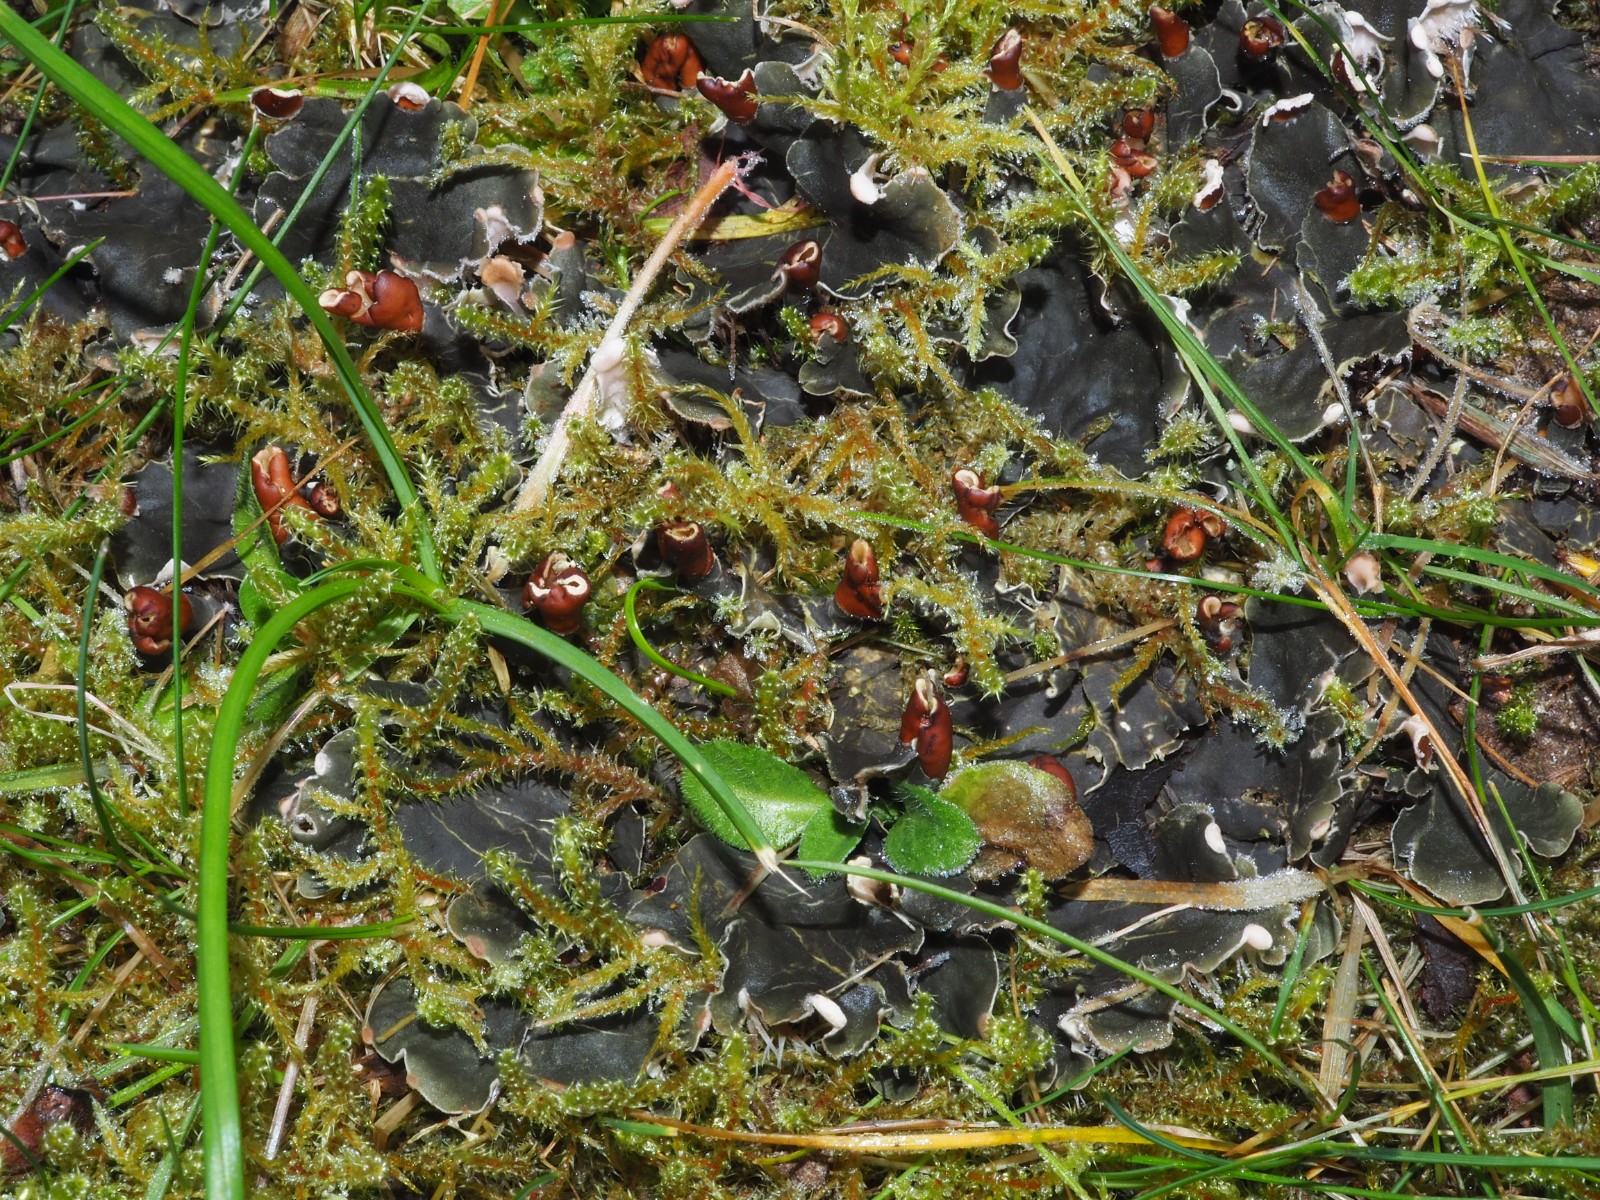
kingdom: Fungi
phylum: Ascomycota
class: Lecanoromycetes
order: Peltigerales
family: Peltigeraceae
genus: Peltigera
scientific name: Peltigera didactyla
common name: liden skjoldlav
